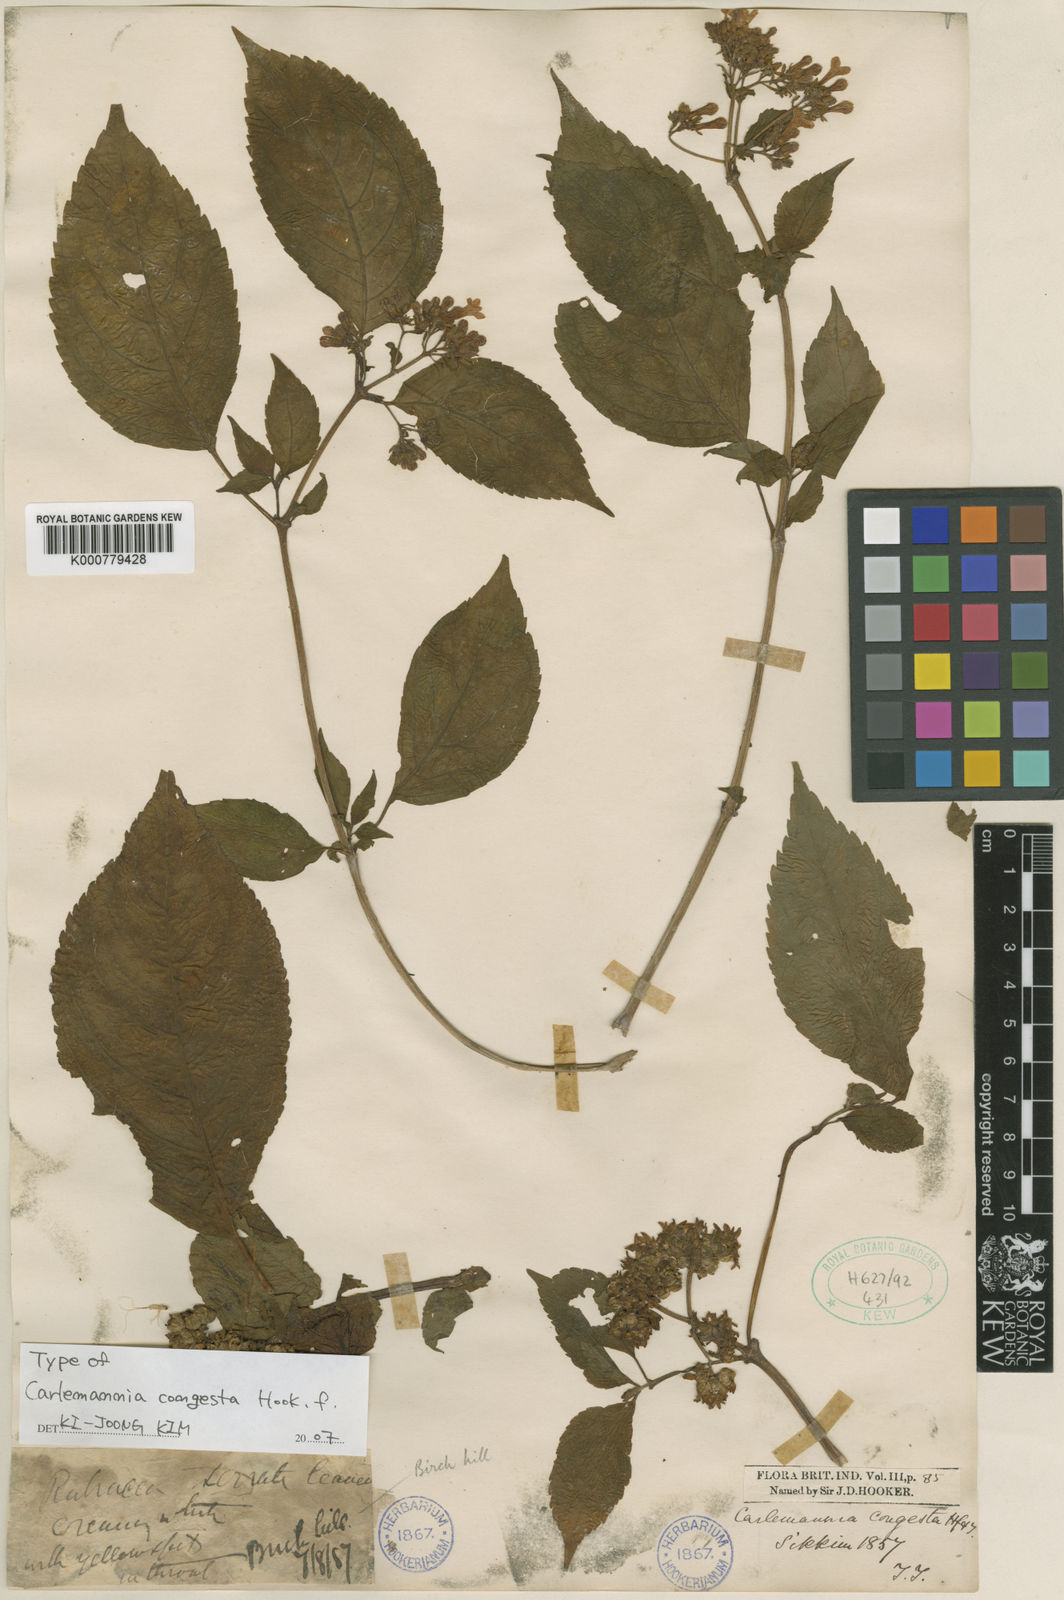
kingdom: Plantae
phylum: Tracheophyta
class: Magnoliopsida
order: Lamiales
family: Carlemanniaceae
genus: Carlemannia
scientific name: Carlemannia congesta
